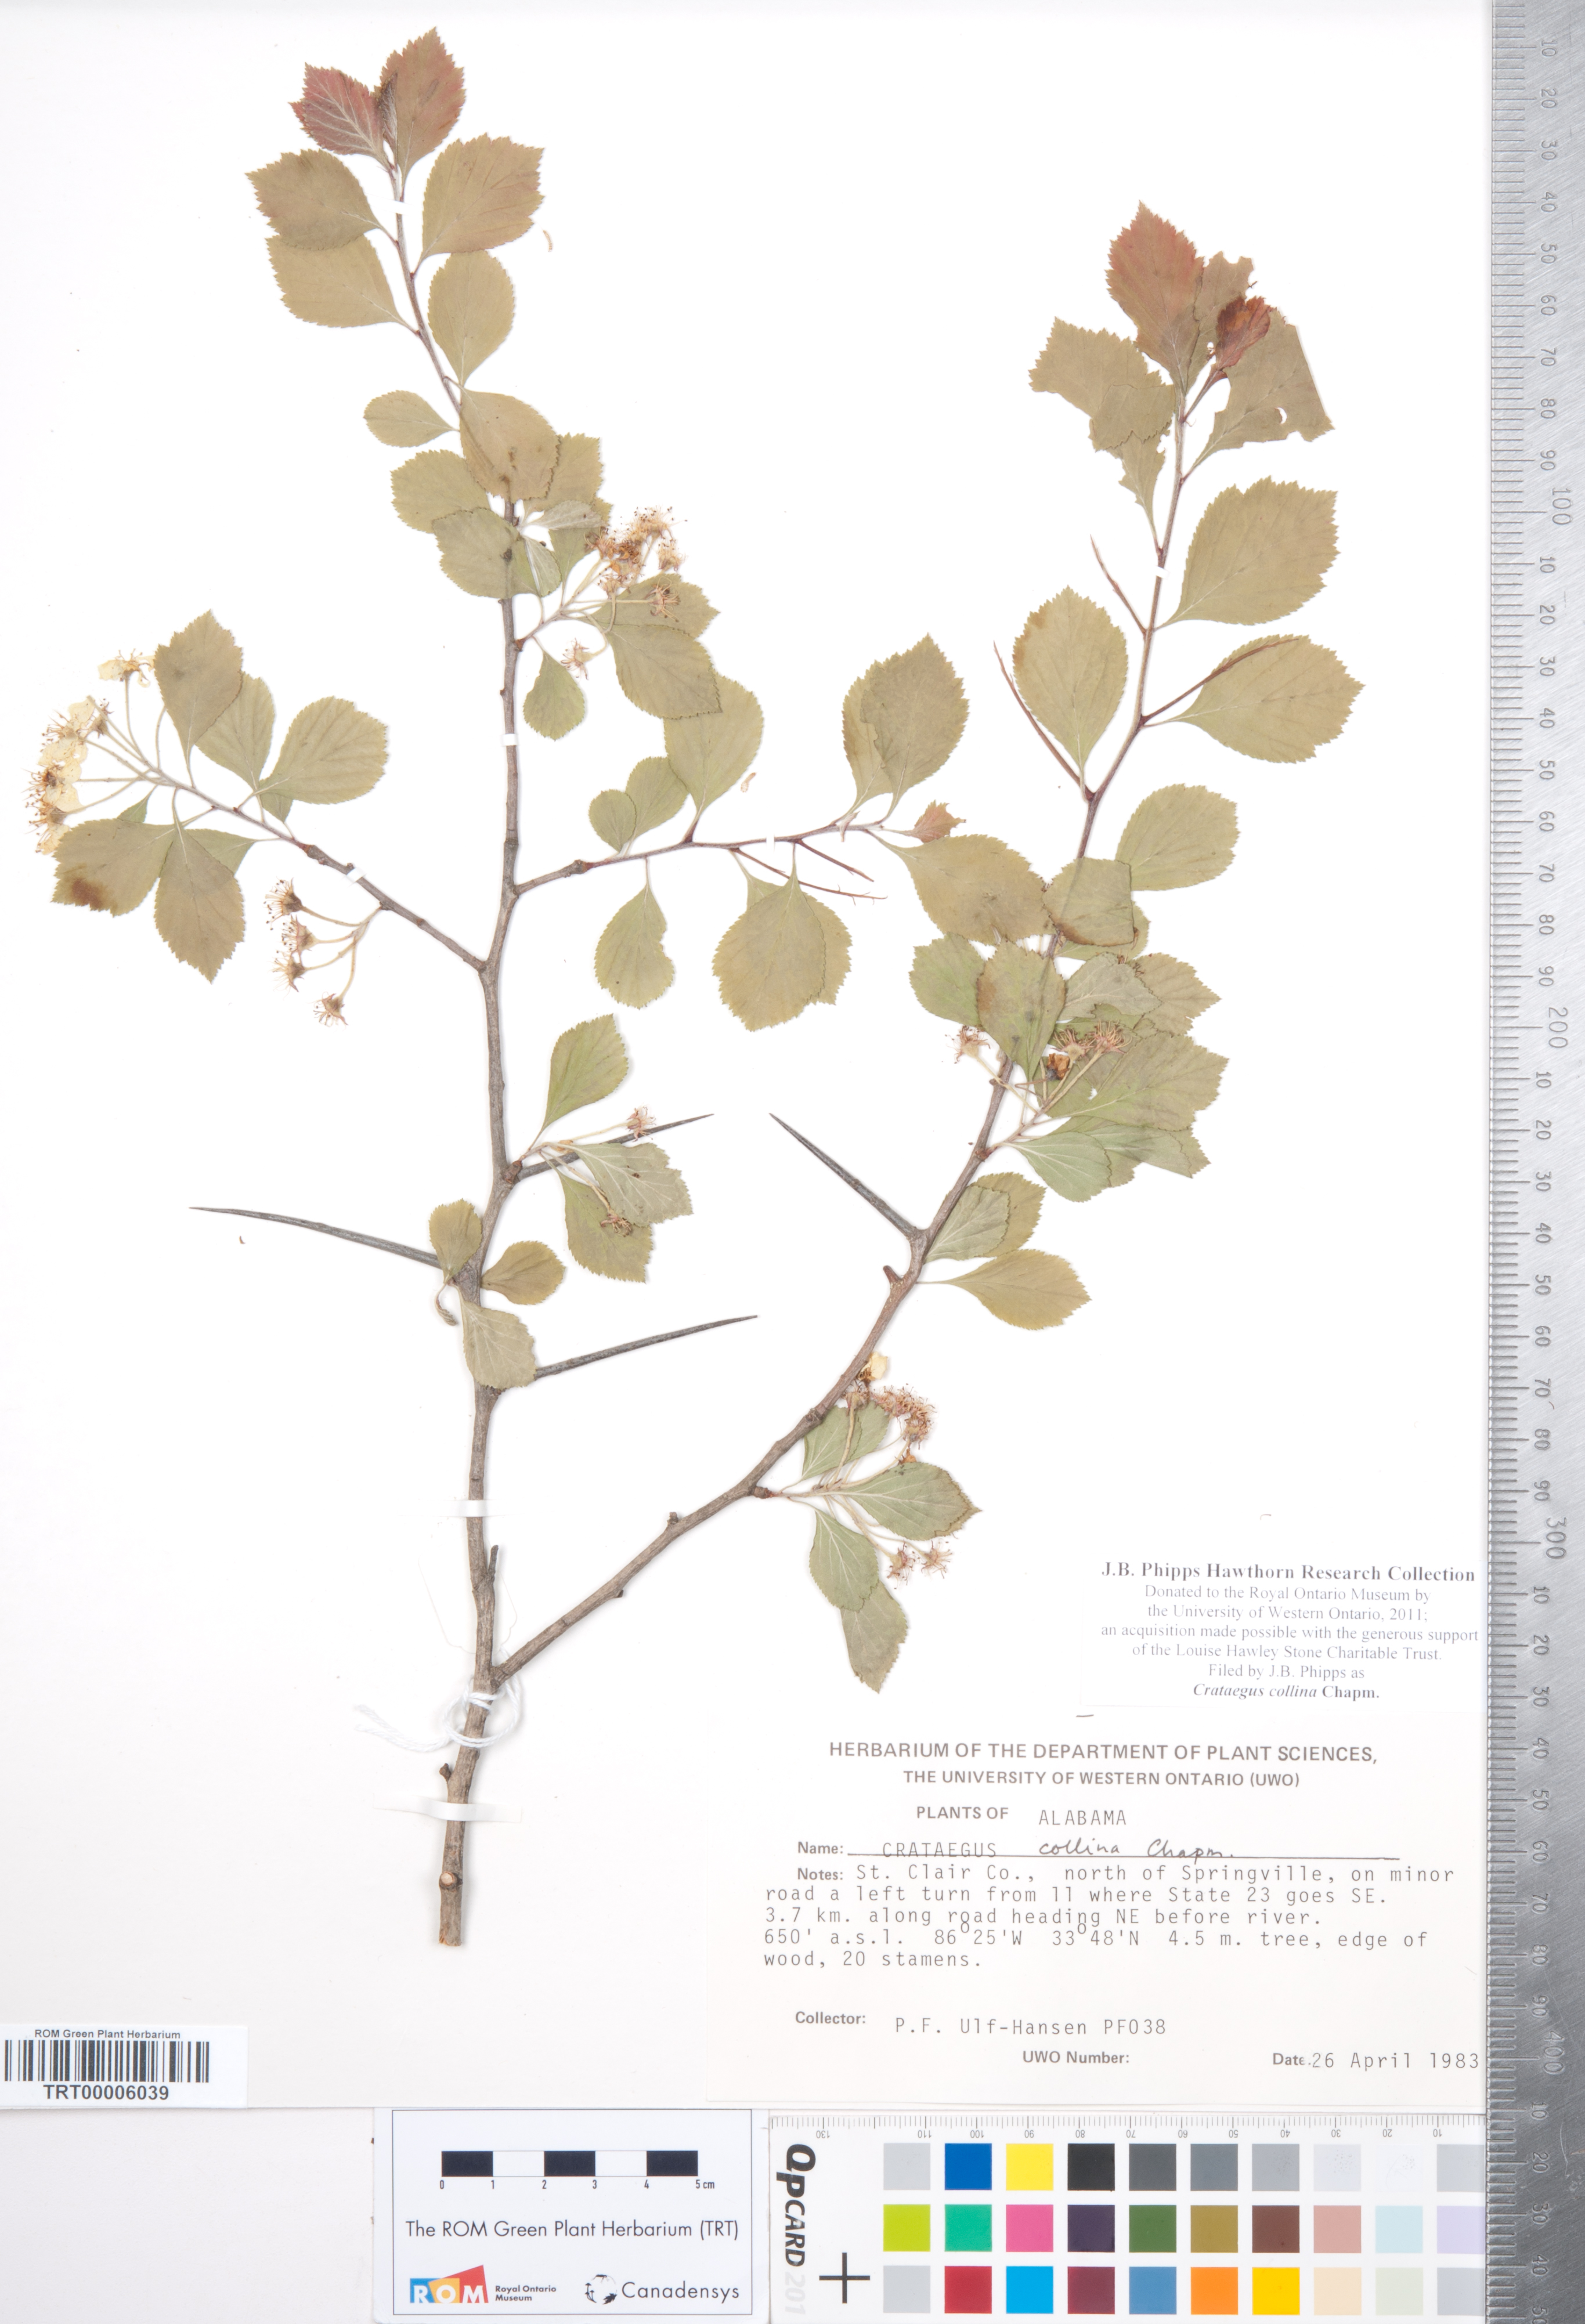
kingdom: Plantae
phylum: Tracheophyta
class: Magnoliopsida
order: Rosales
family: Rosaceae
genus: Crataegus
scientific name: Crataegus collina
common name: Hillside hawthorn
